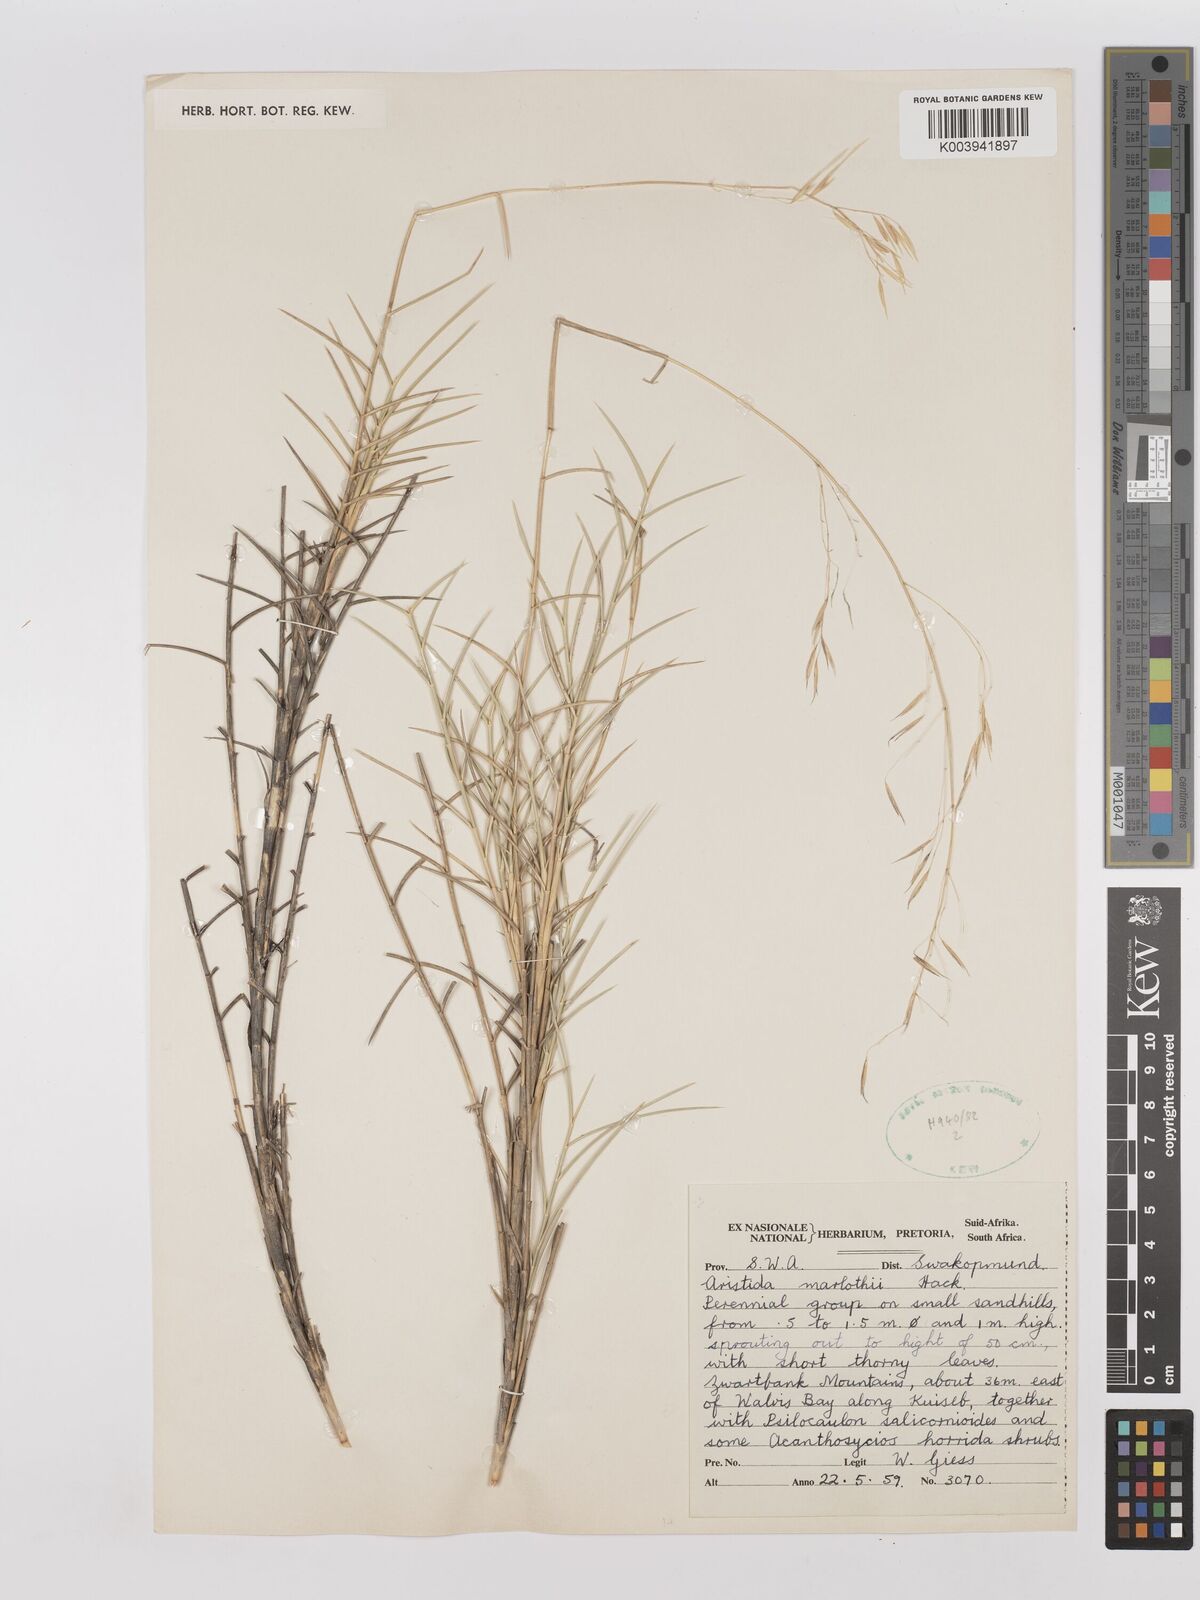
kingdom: Plantae
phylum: Tracheophyta
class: Liliopsida
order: Poales
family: Poaceae
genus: Stipagrostis
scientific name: Stipagrostis lutescens
